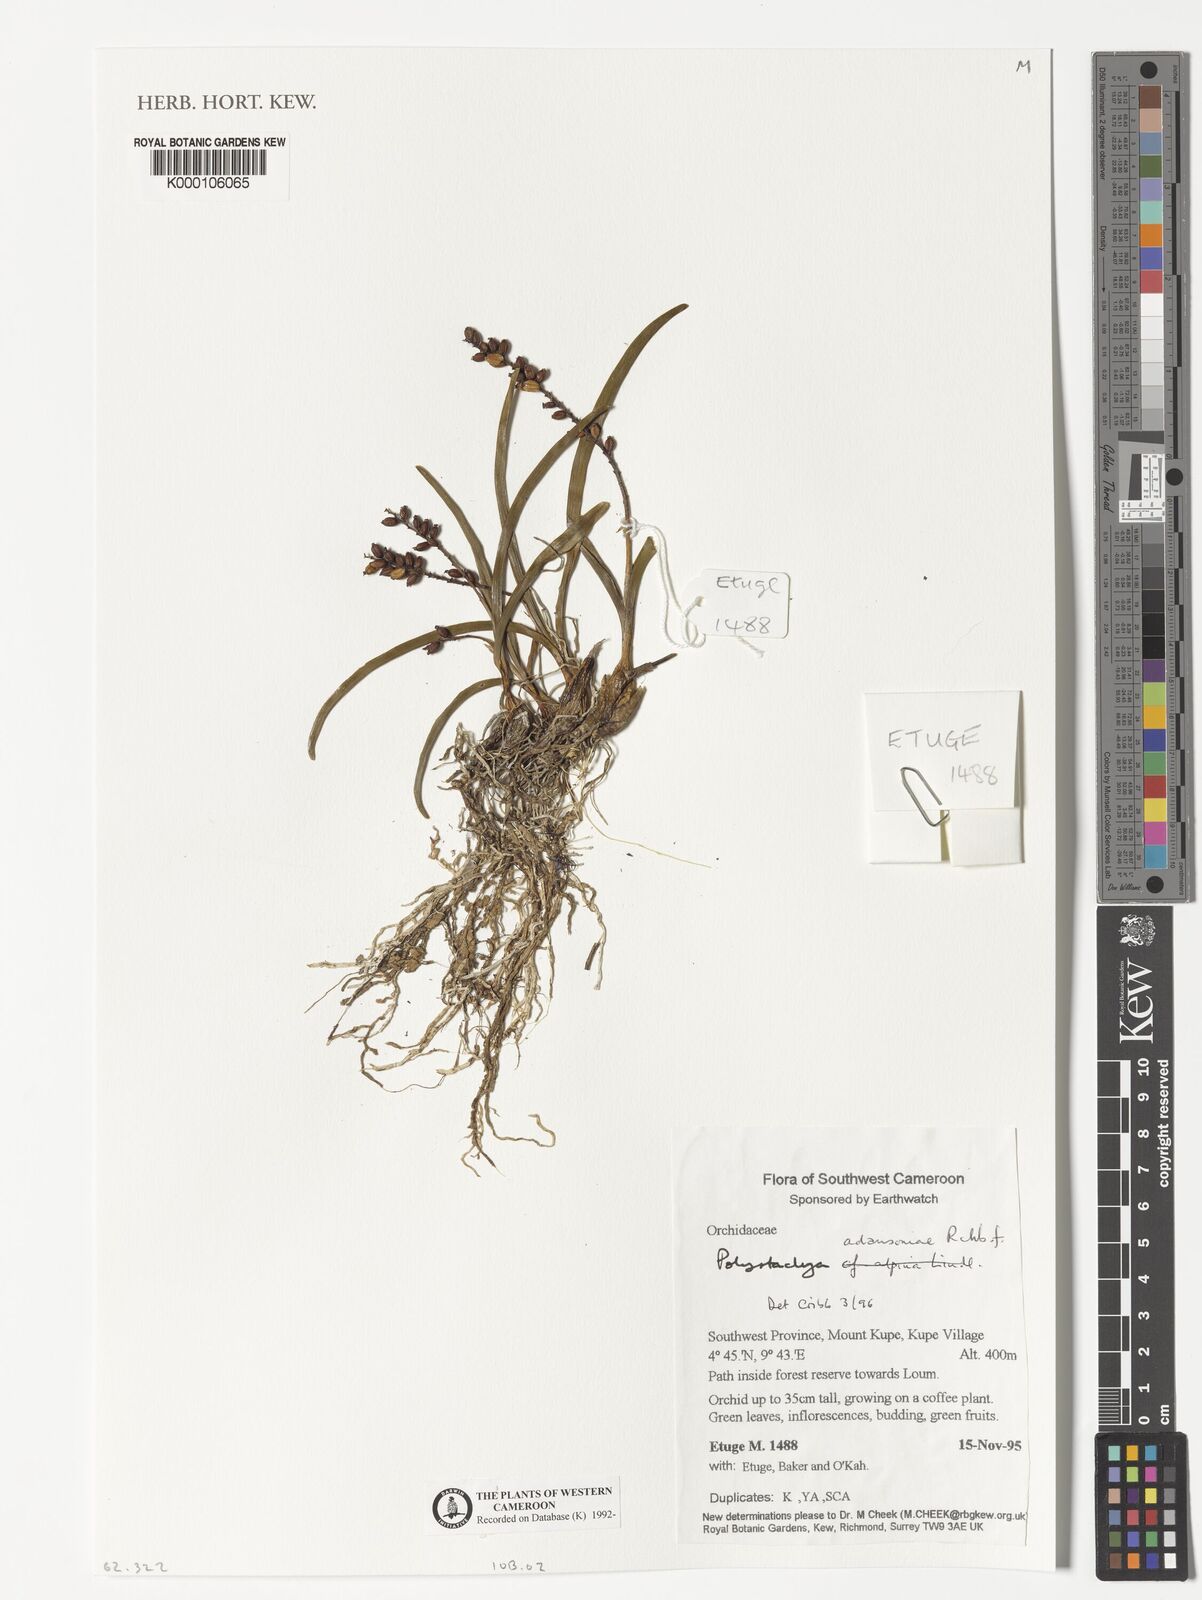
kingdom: Plantae
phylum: Tracheophyta
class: Liliopsida
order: Asparagales
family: Orchidaceae
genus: Polystachya
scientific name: Polystachya adansoniae
